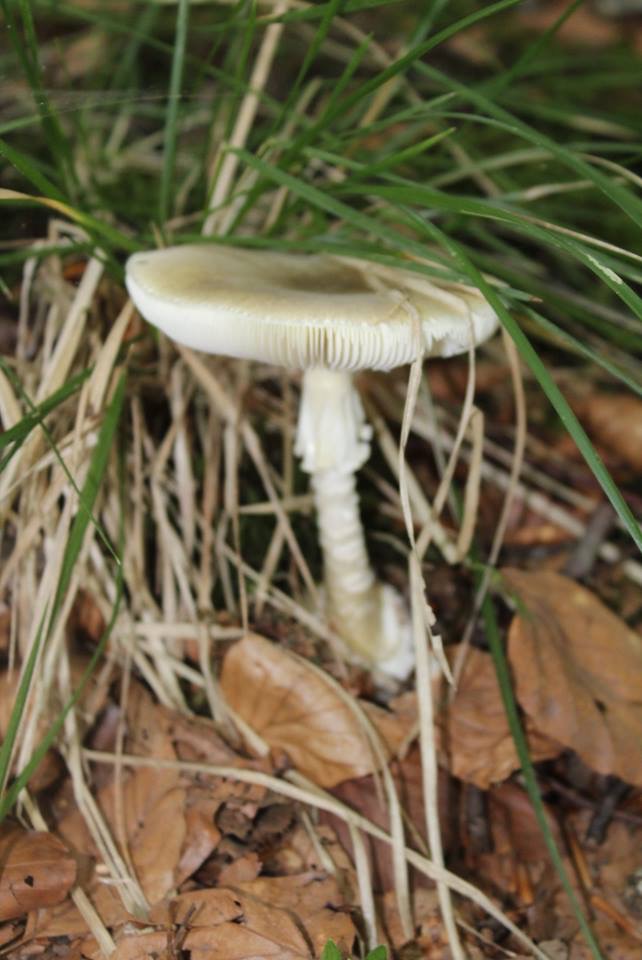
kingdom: Fungi
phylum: Basidiomycota
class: Agaricomycetes
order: Agaricales
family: Amanitaceae
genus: Amanita
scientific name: Amanita phalloides
